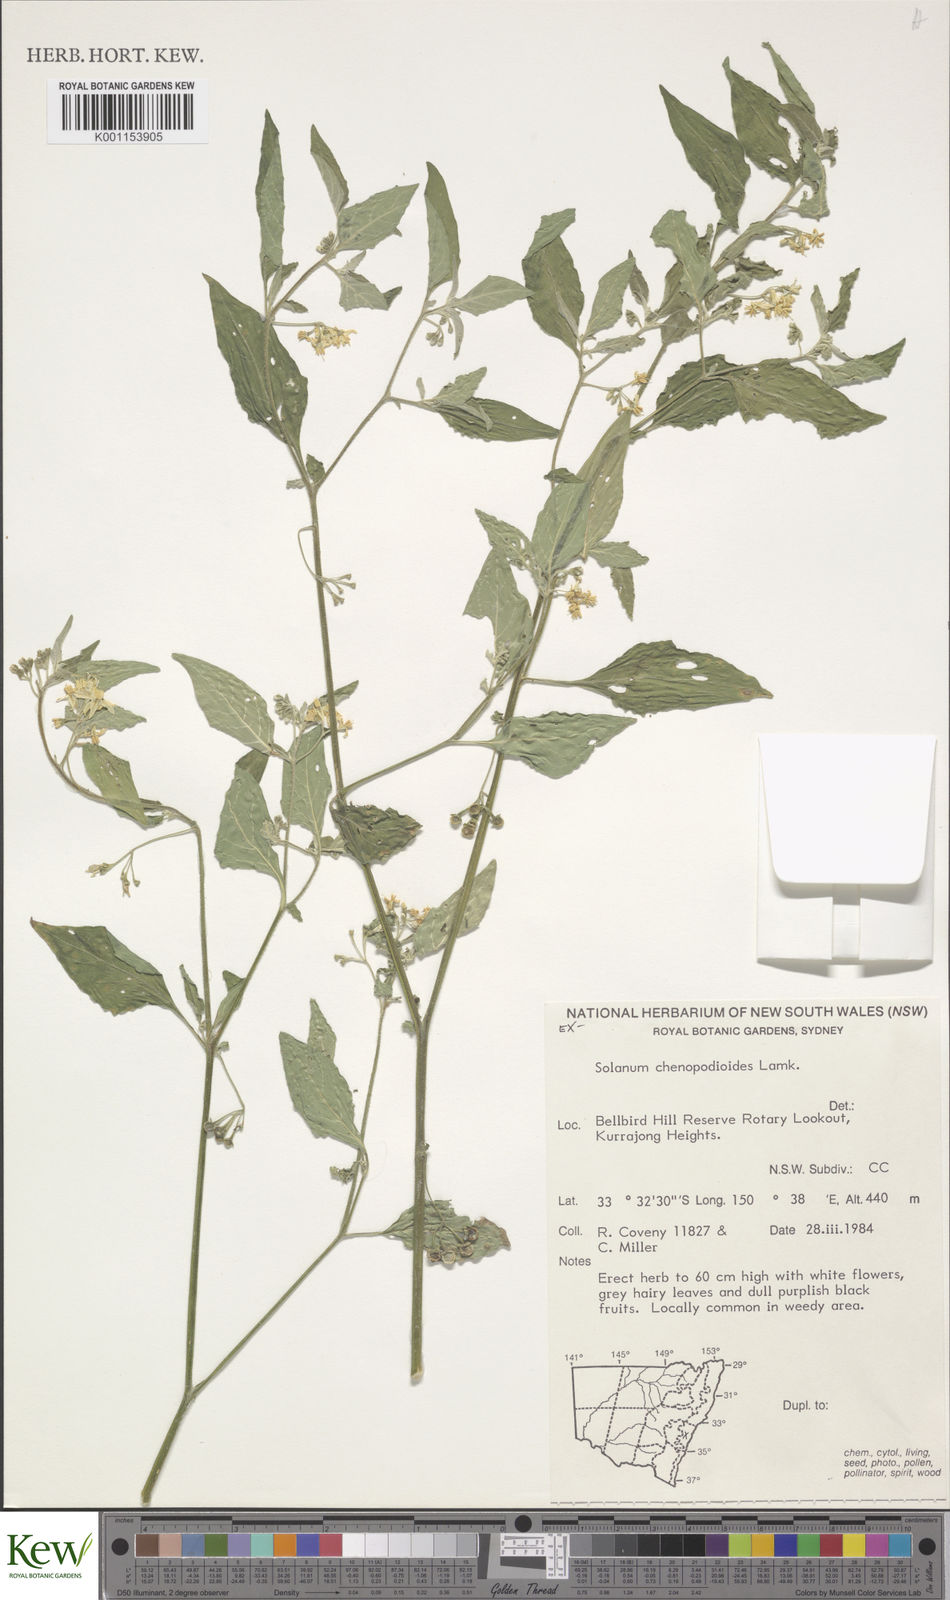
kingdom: Plantae
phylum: Tracheophyta
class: Magnoliopsida
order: Solanales
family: Solanaceae
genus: Solanum
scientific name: Solanum chenopodioides
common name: Tall nightshade
